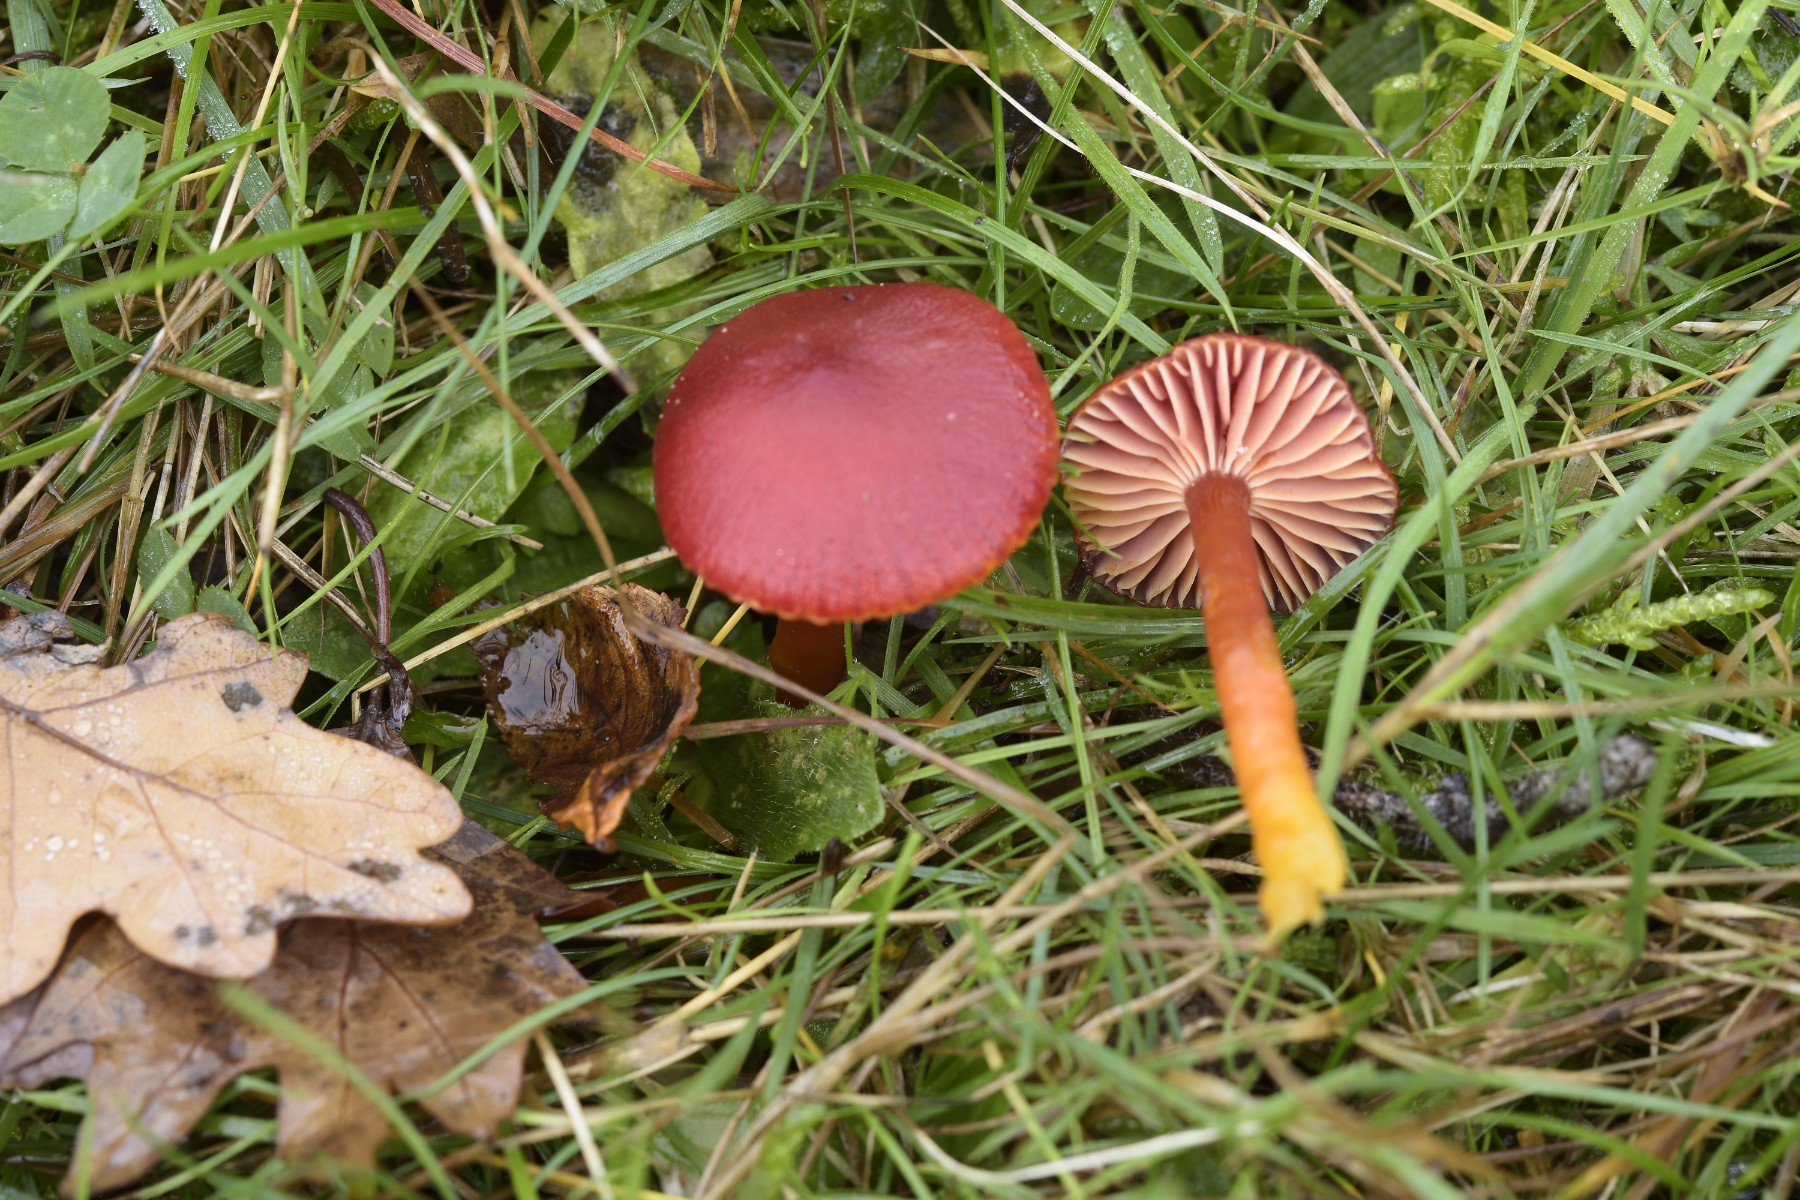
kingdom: Fungi
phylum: Basidiomycota
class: Agaricomycetes
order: Agaricales
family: Hygrophoraceae
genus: Hygrocybe
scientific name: Hygrocybe coccinea
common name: cinnober-vokshat
